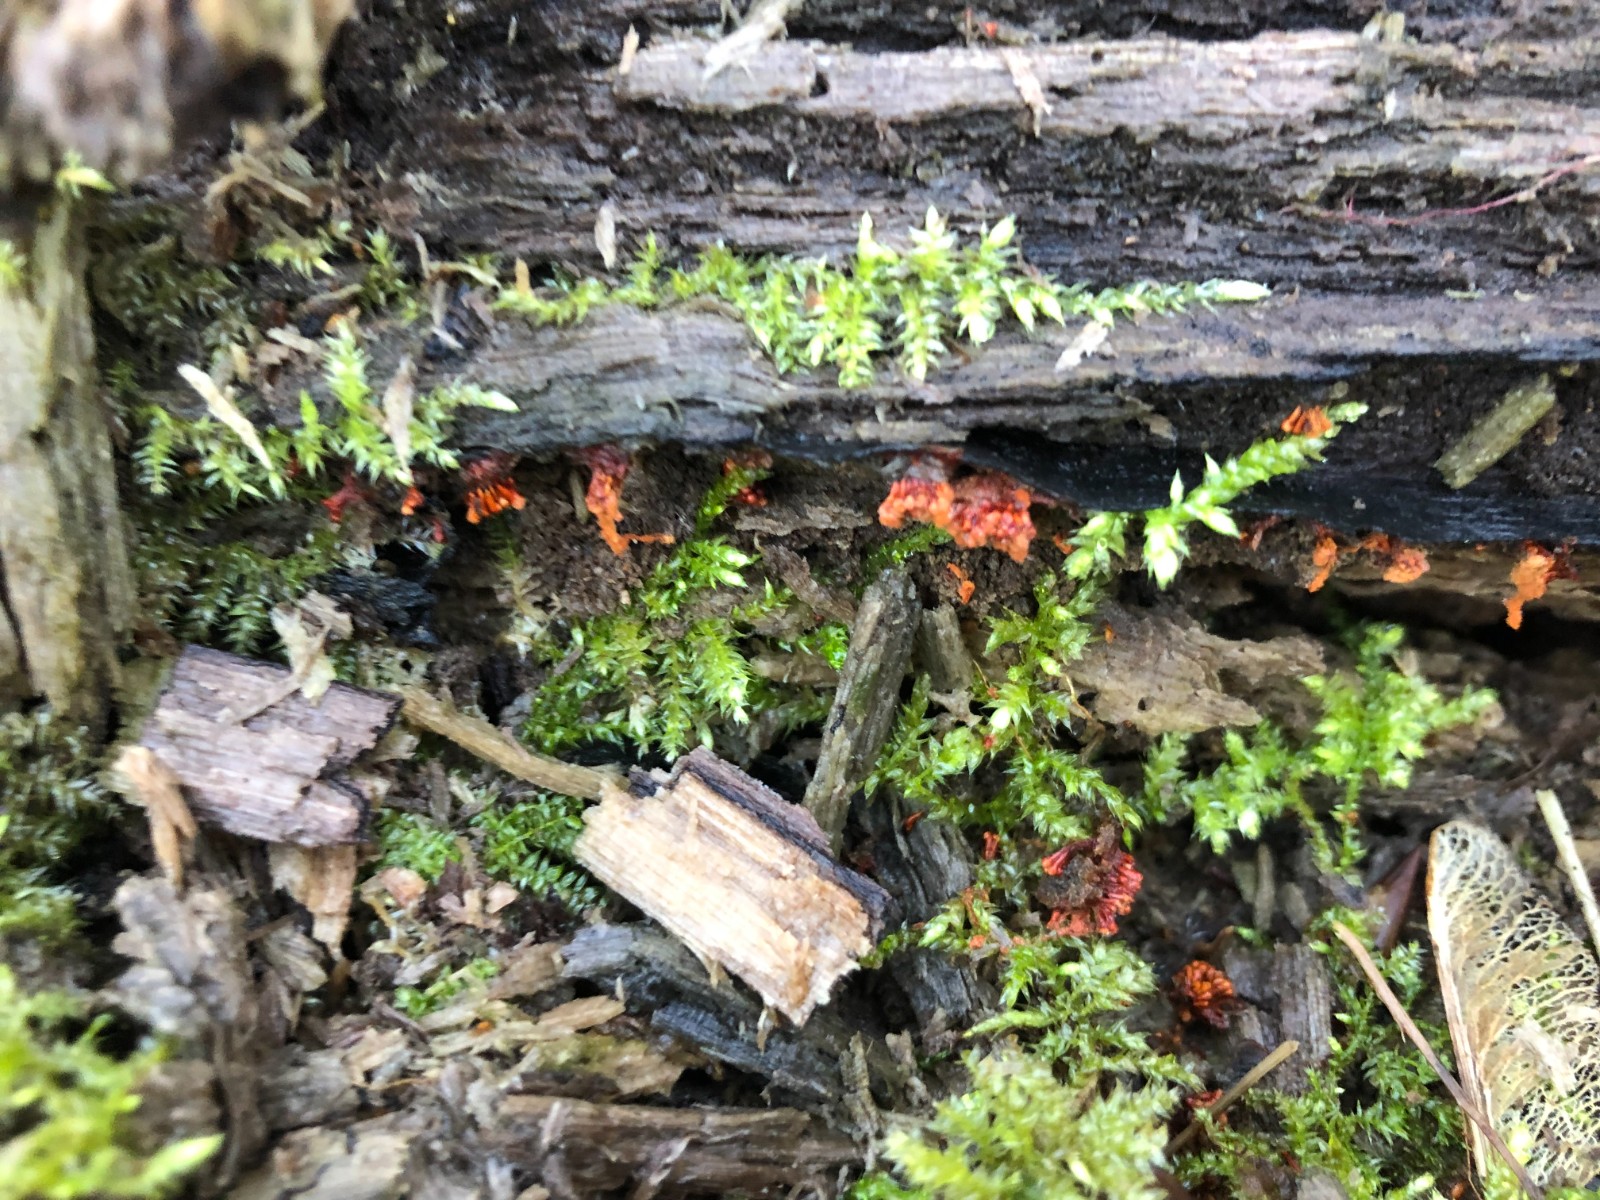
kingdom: Protozoa
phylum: Mycetozoa
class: Myxomycetes
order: Trichiales
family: Trichiaceae
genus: Metatrichia
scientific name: Metatrichia vesparia
